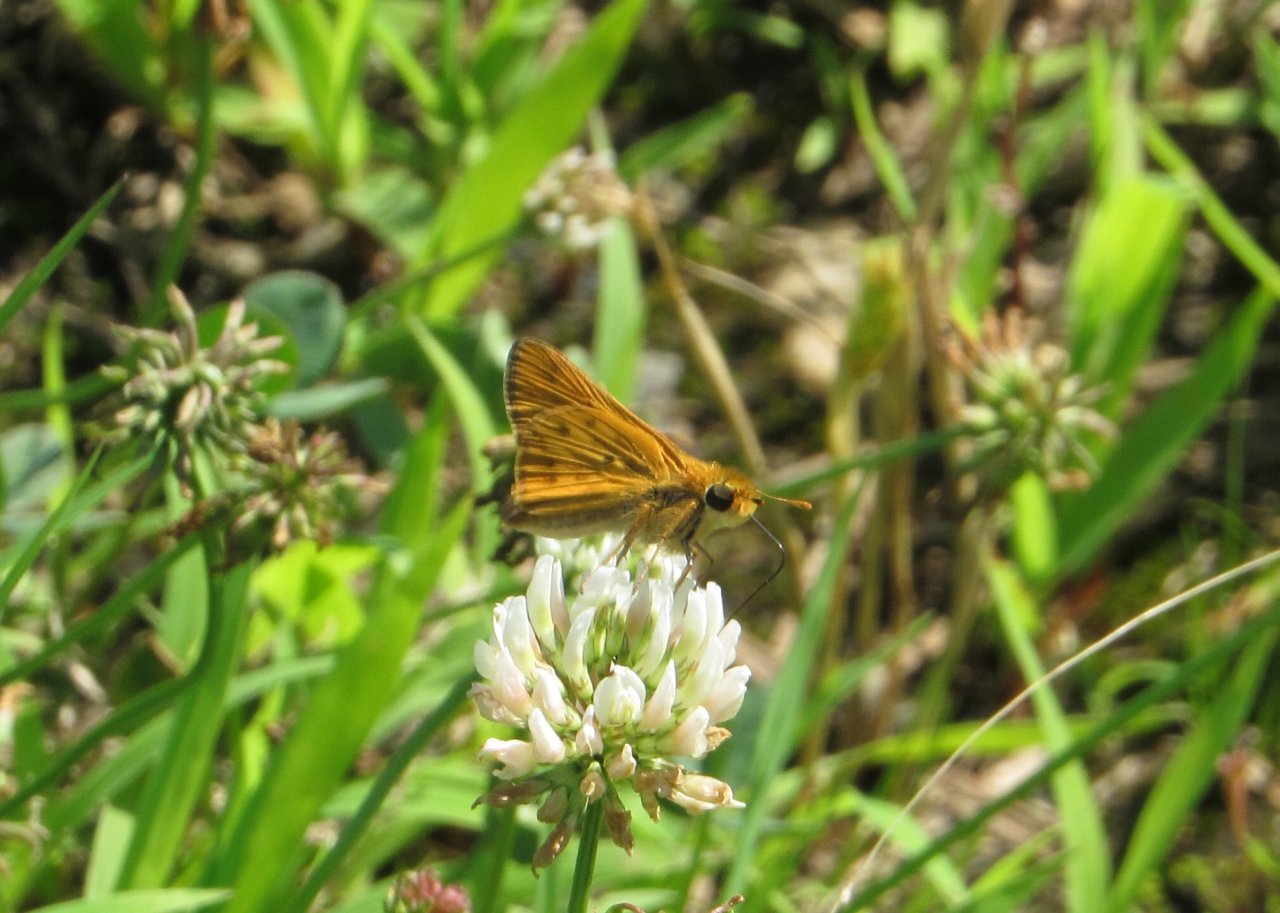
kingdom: Animalia
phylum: Arthropoda
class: Insecta
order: Lepidoptera
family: Hesperiidae
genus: Hylephila
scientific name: Hylephila phyleus
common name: Fiery Skipper
